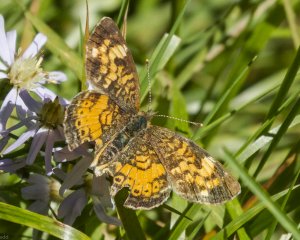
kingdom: Animalia
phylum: Arthropoda
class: Insecta
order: Lepidoptera
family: Nymphalidae
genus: Phyciodes
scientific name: Phyciodes tharos
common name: Northern Crescent
